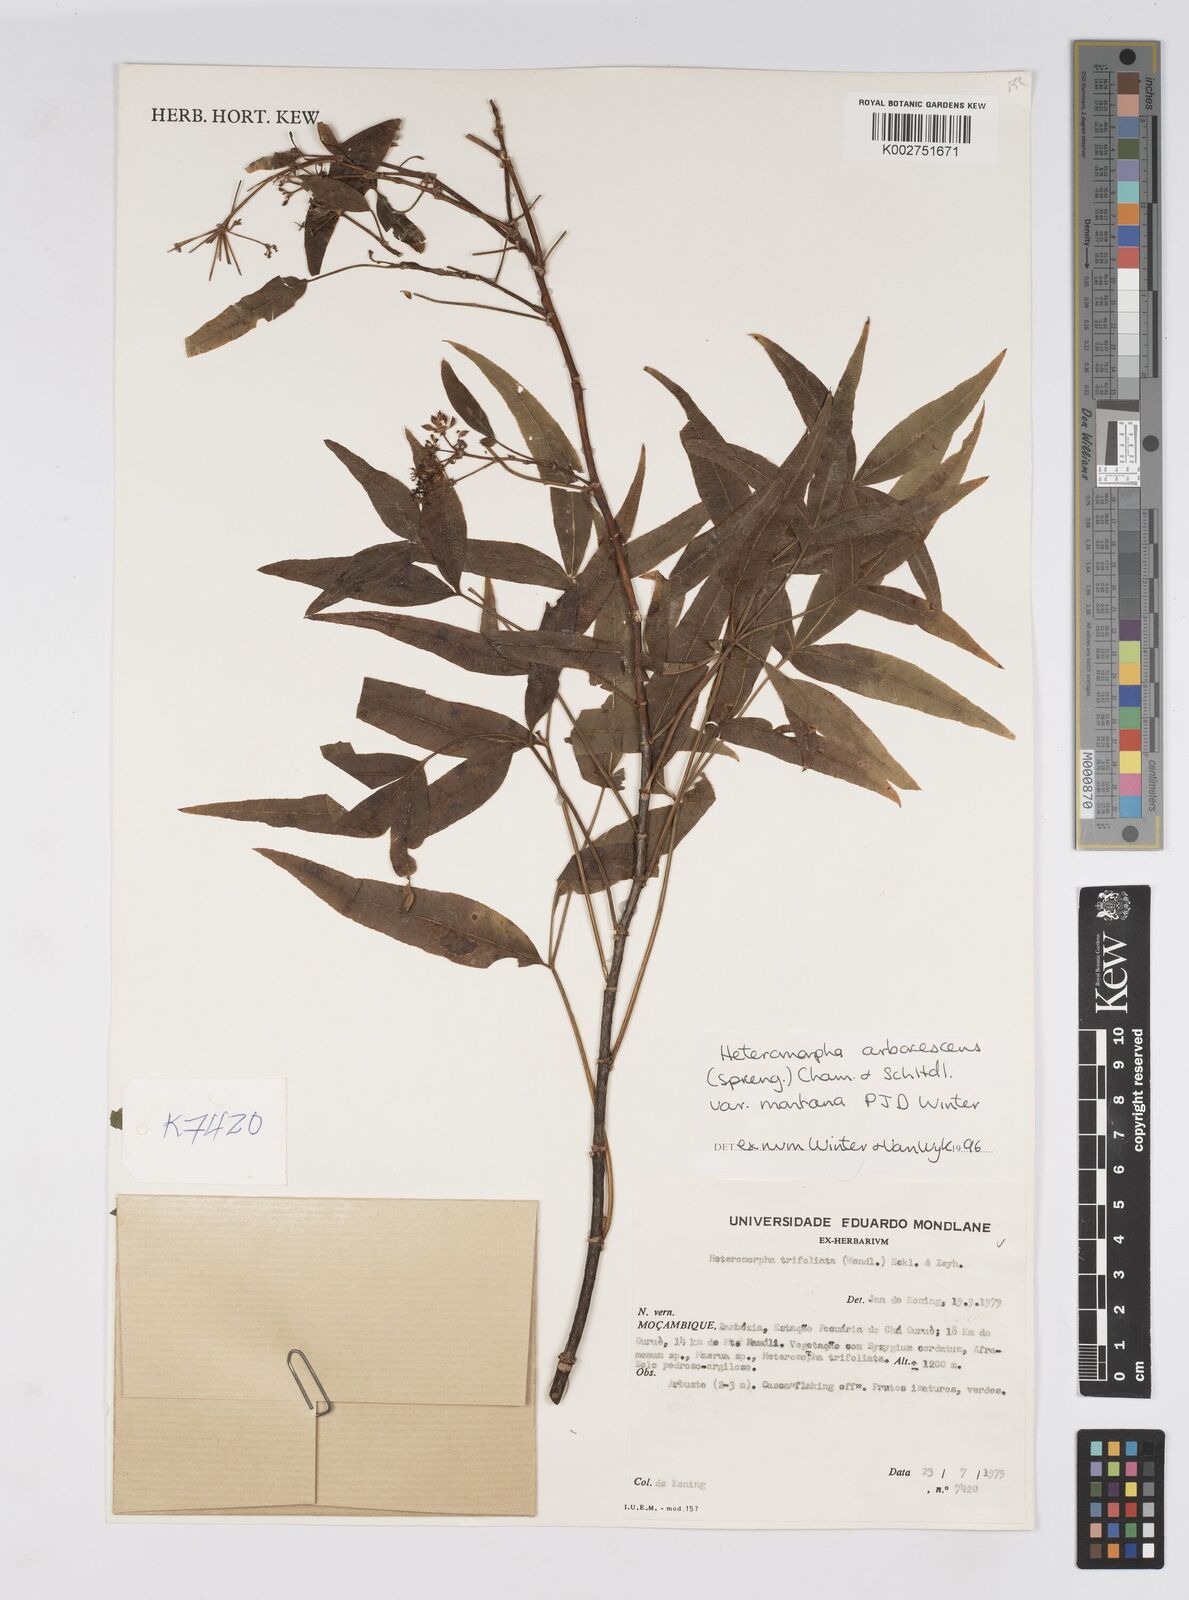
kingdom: Plantae
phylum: Tracheophyta
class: Magnoliopsida
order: Apiales
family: Apiaceae
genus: Heteromorpha
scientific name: Heteromorpha montana
